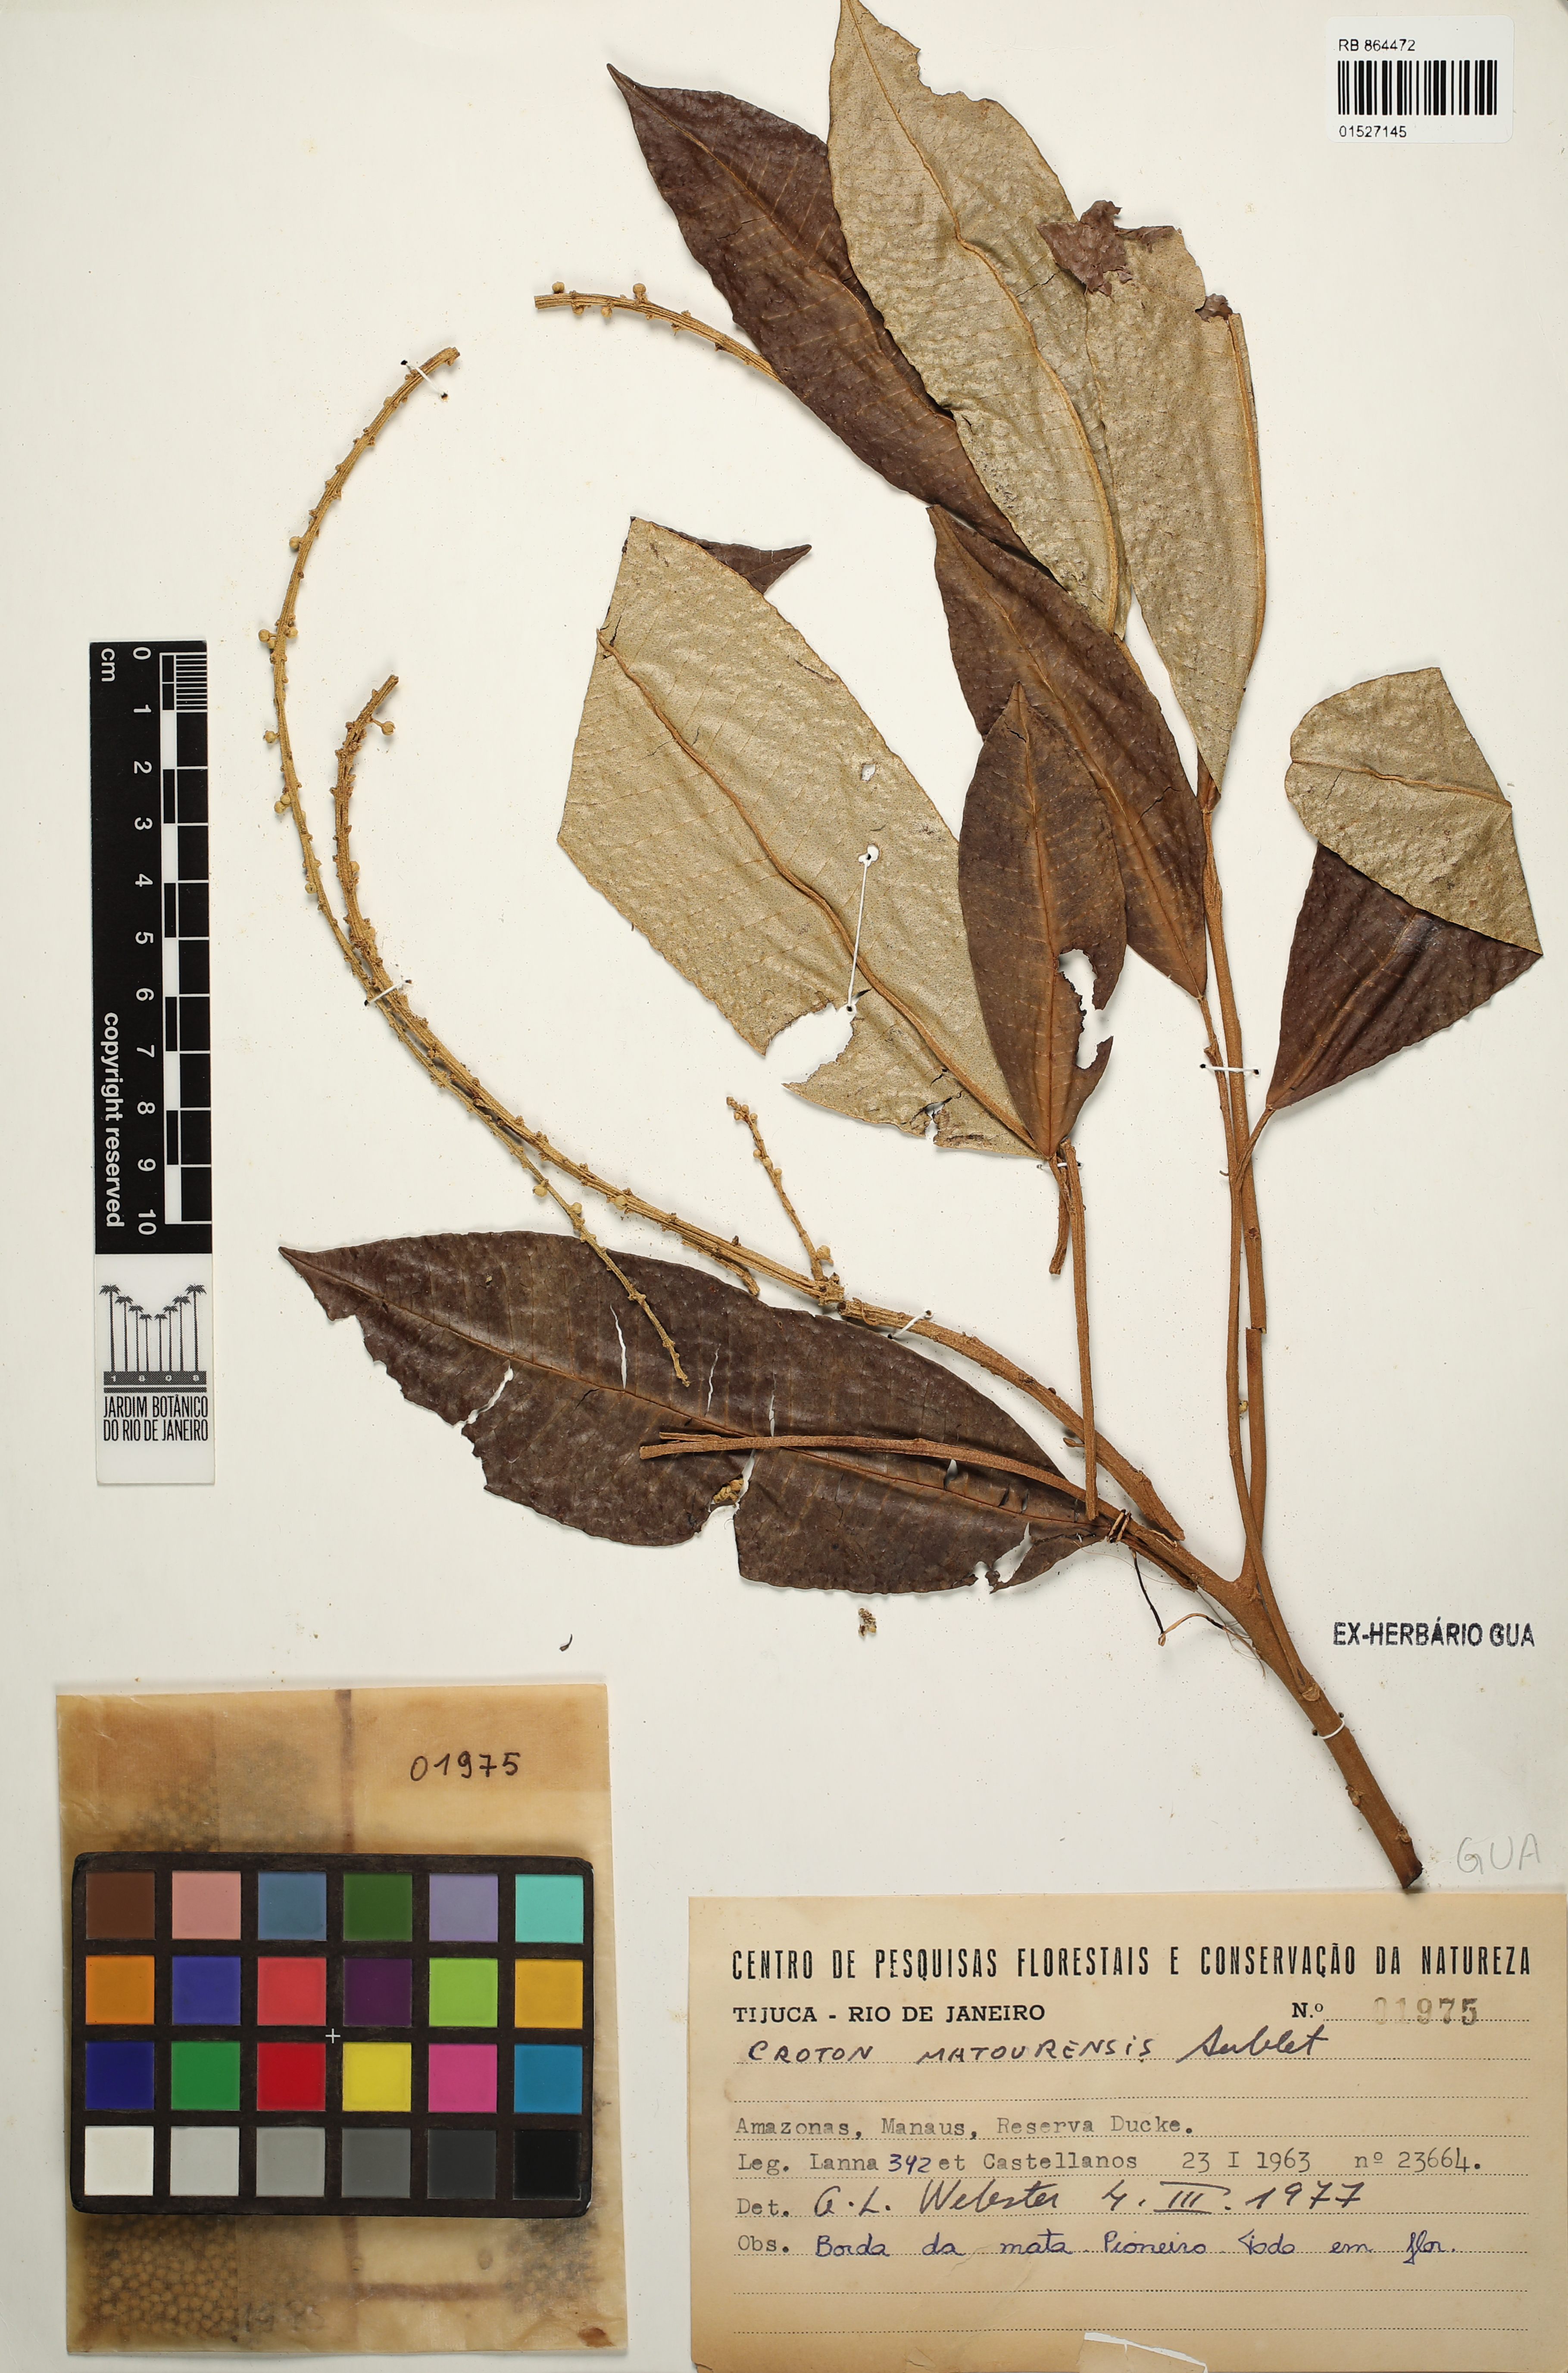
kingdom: Plantae
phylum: Tracheophyta
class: Magnoliopsida
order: Malpighiales
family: Euphorbiaceae
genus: Croton
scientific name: Croton matourensis
